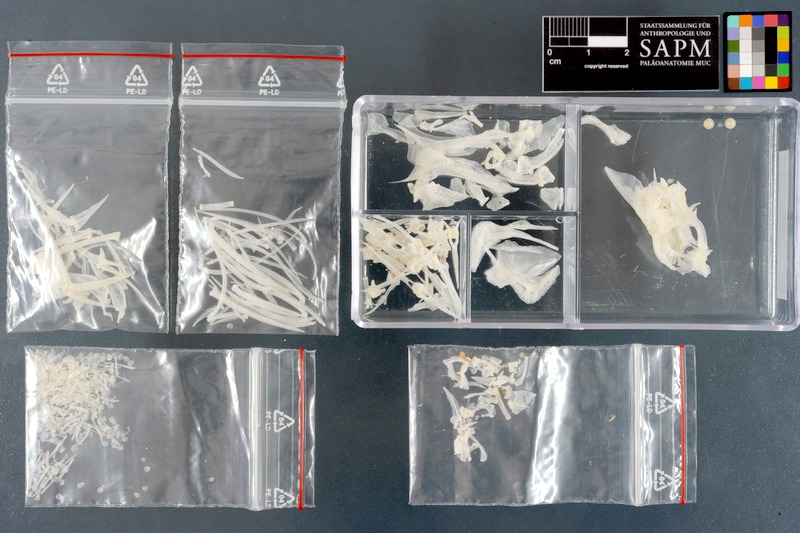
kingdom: Animalia
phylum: Chordata
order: Perciformes
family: Scatophagidae
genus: Scatophagus
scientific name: Scatophagus argus
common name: Spotted scat
